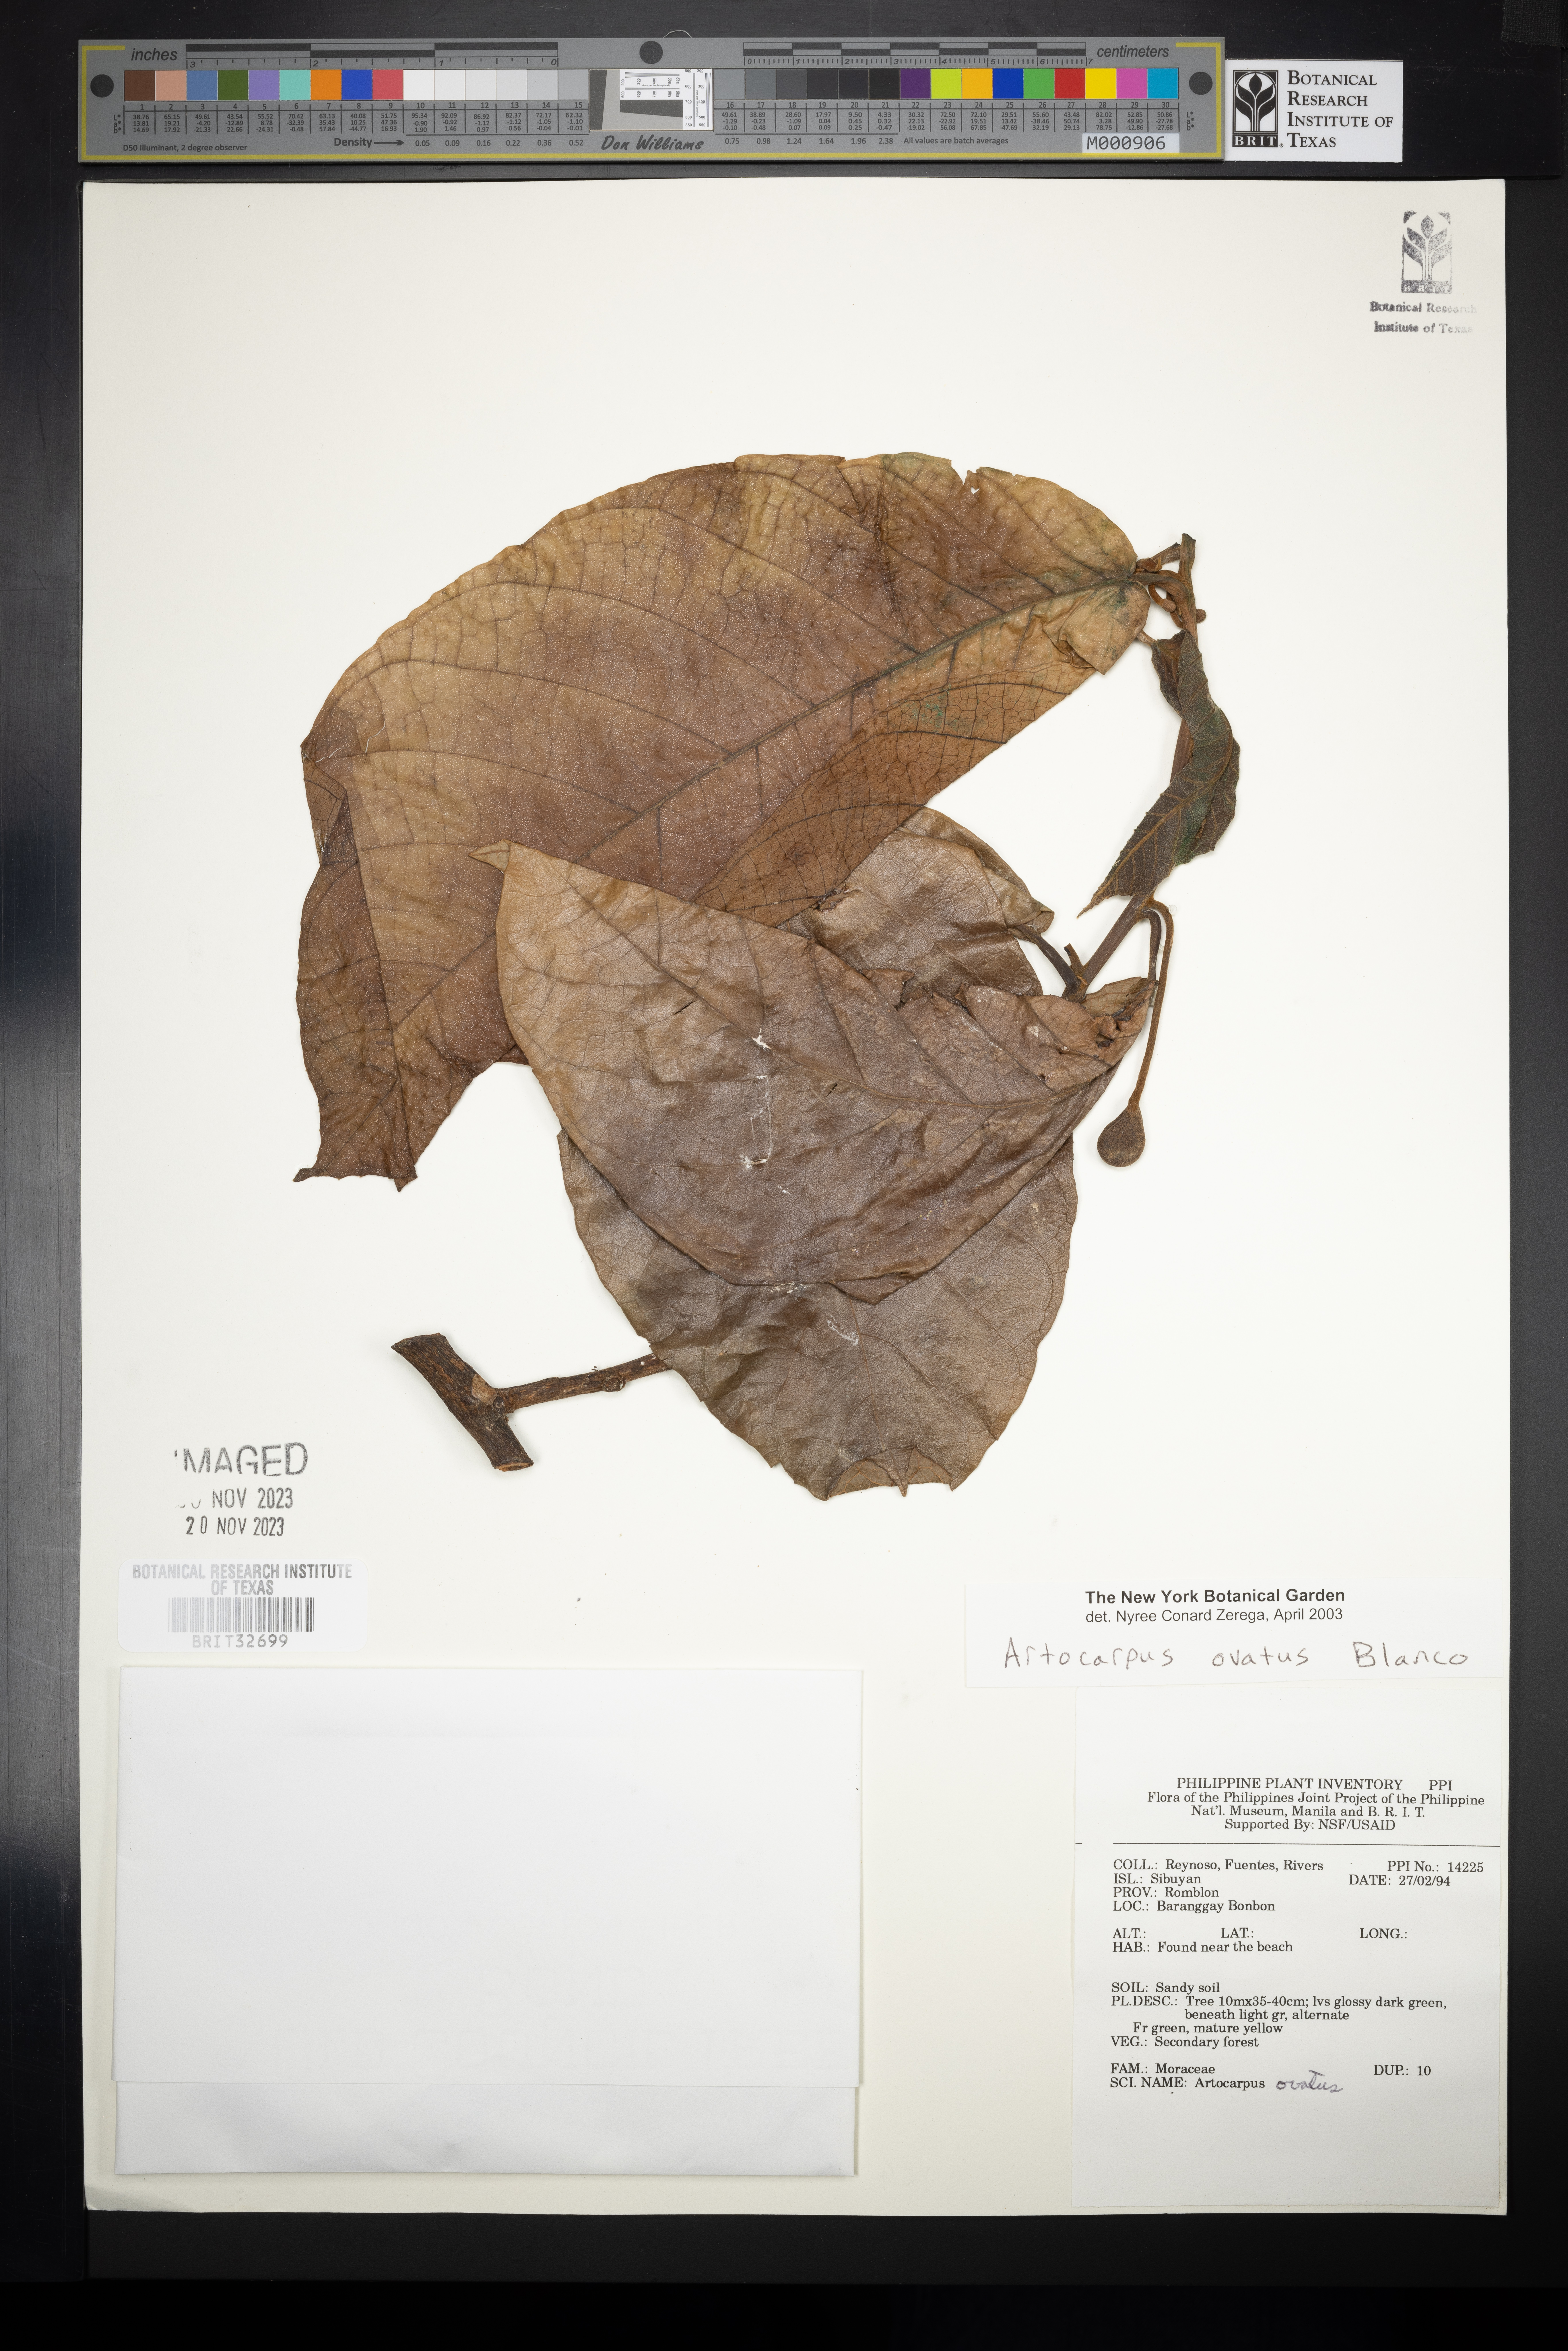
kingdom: Plantae
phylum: Tracheophyta
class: Magnoliopsida
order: Rosales
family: Moraceae
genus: Artocarpus
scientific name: Artocarpus lacucha
